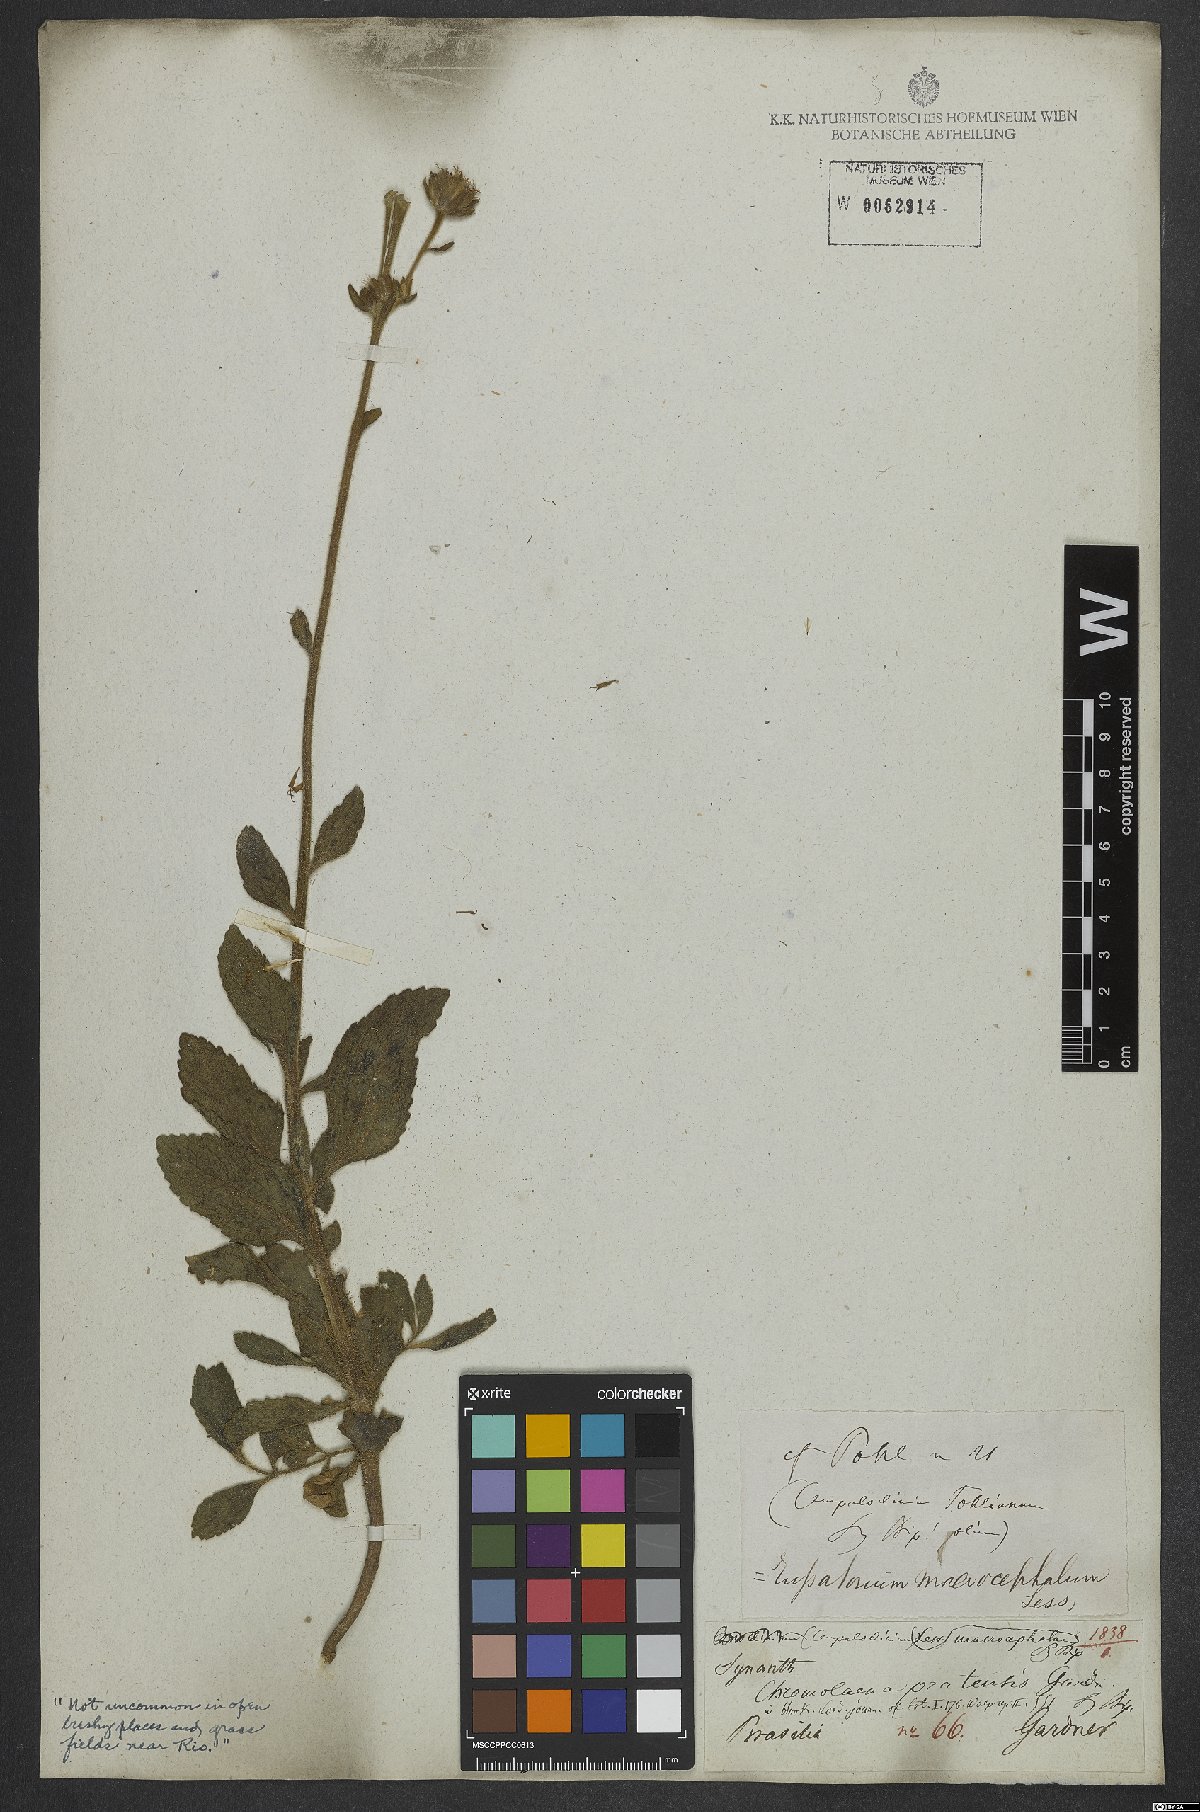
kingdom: Plantae
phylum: Tracheophyta
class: Magnoliopsida
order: Asterales
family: Asteraceae
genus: Campuloclinium
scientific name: Campuloclinium macrocephalum
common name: Pompomweed
